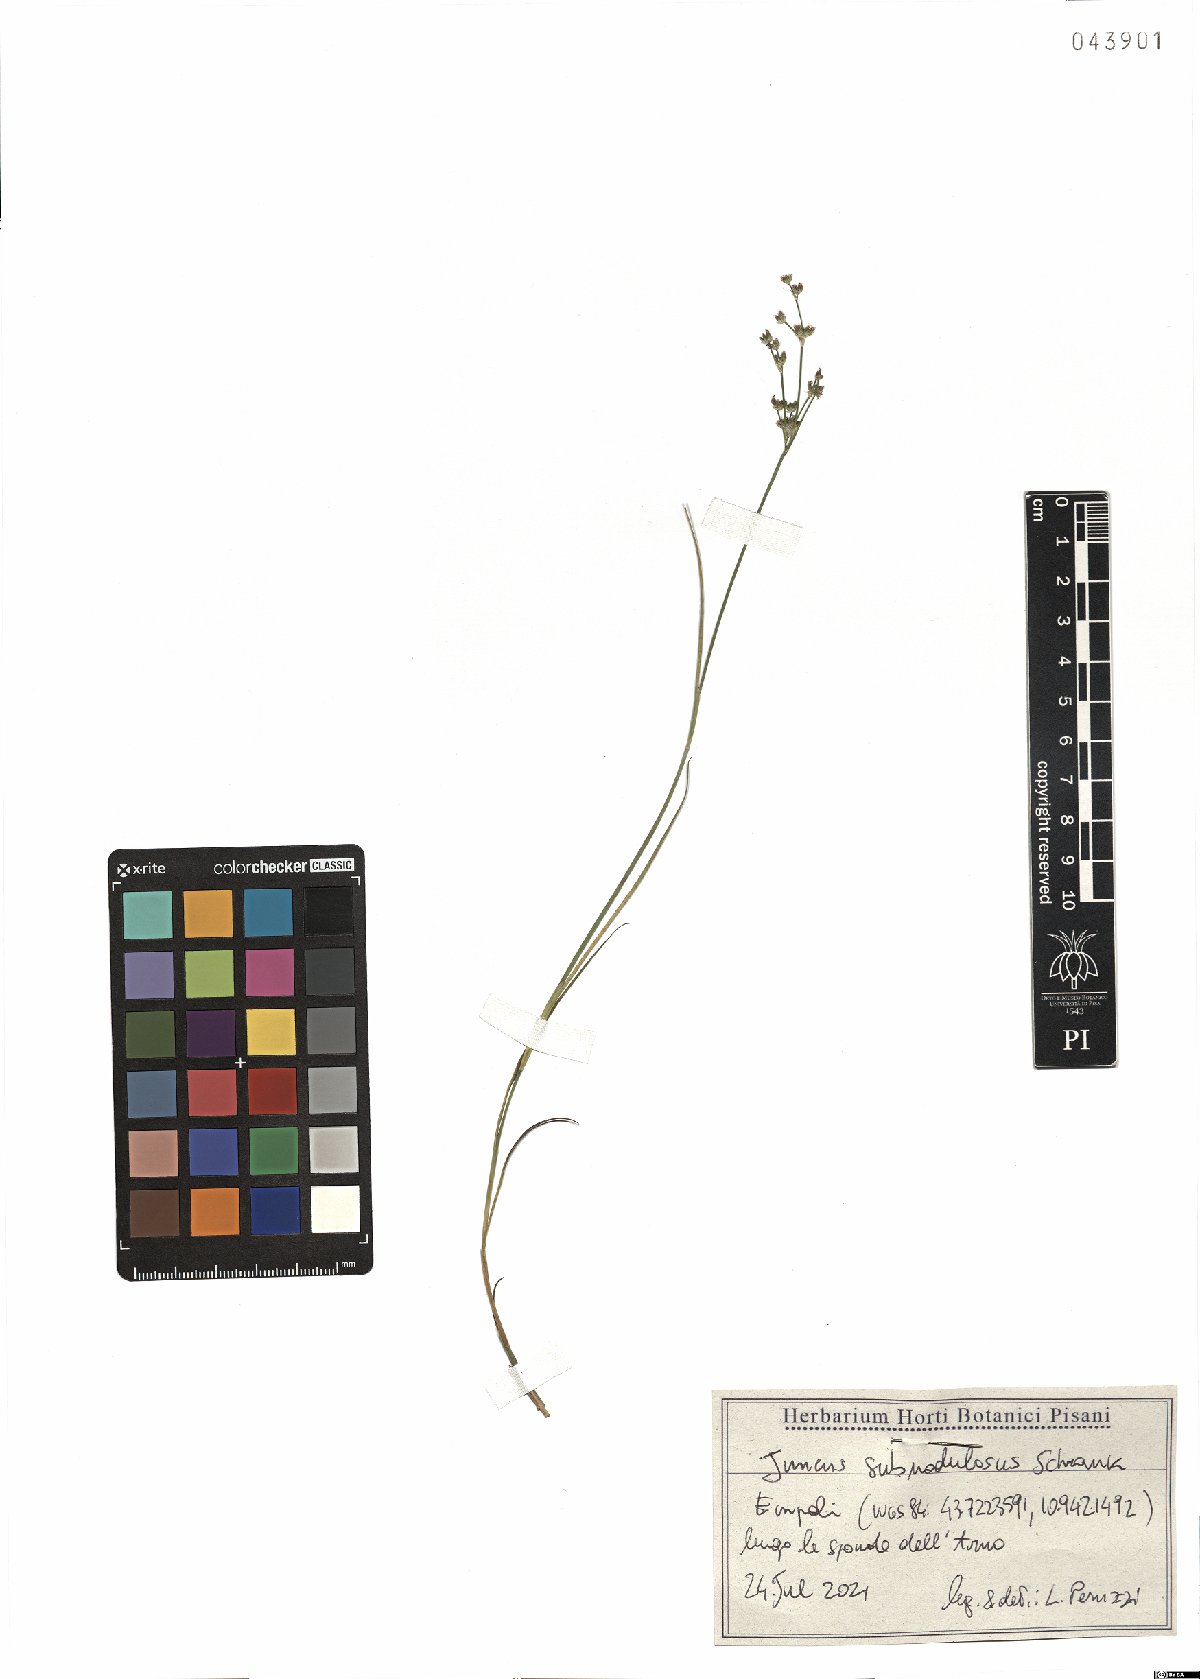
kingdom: Plantae
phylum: Tracheophyta
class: Liliopsida
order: Poales
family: Juncaceae
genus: Juncus
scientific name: Juncus subnodulosus
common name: Blunt-flowered rush
